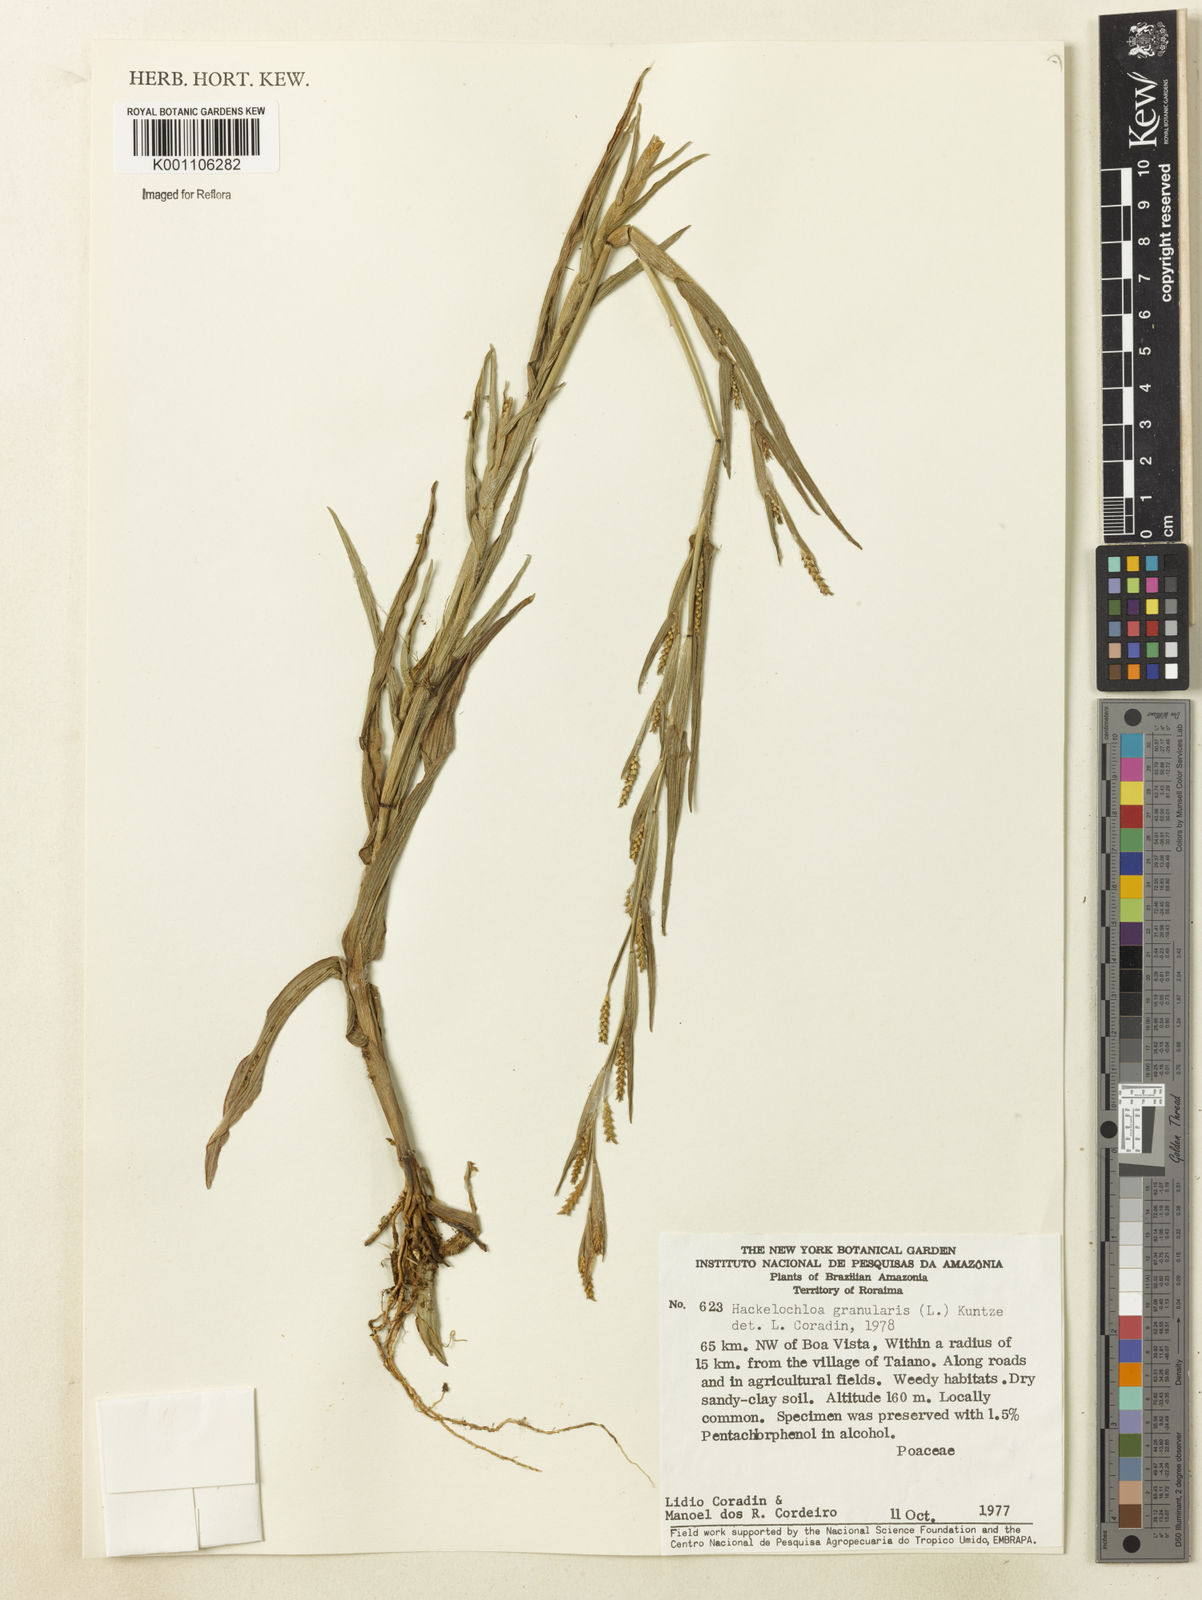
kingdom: Plantae
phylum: Tracheophyta
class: Liliopsida
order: Poales
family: Poaceae
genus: Hackelochloa
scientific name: Hackelochloa granularis
